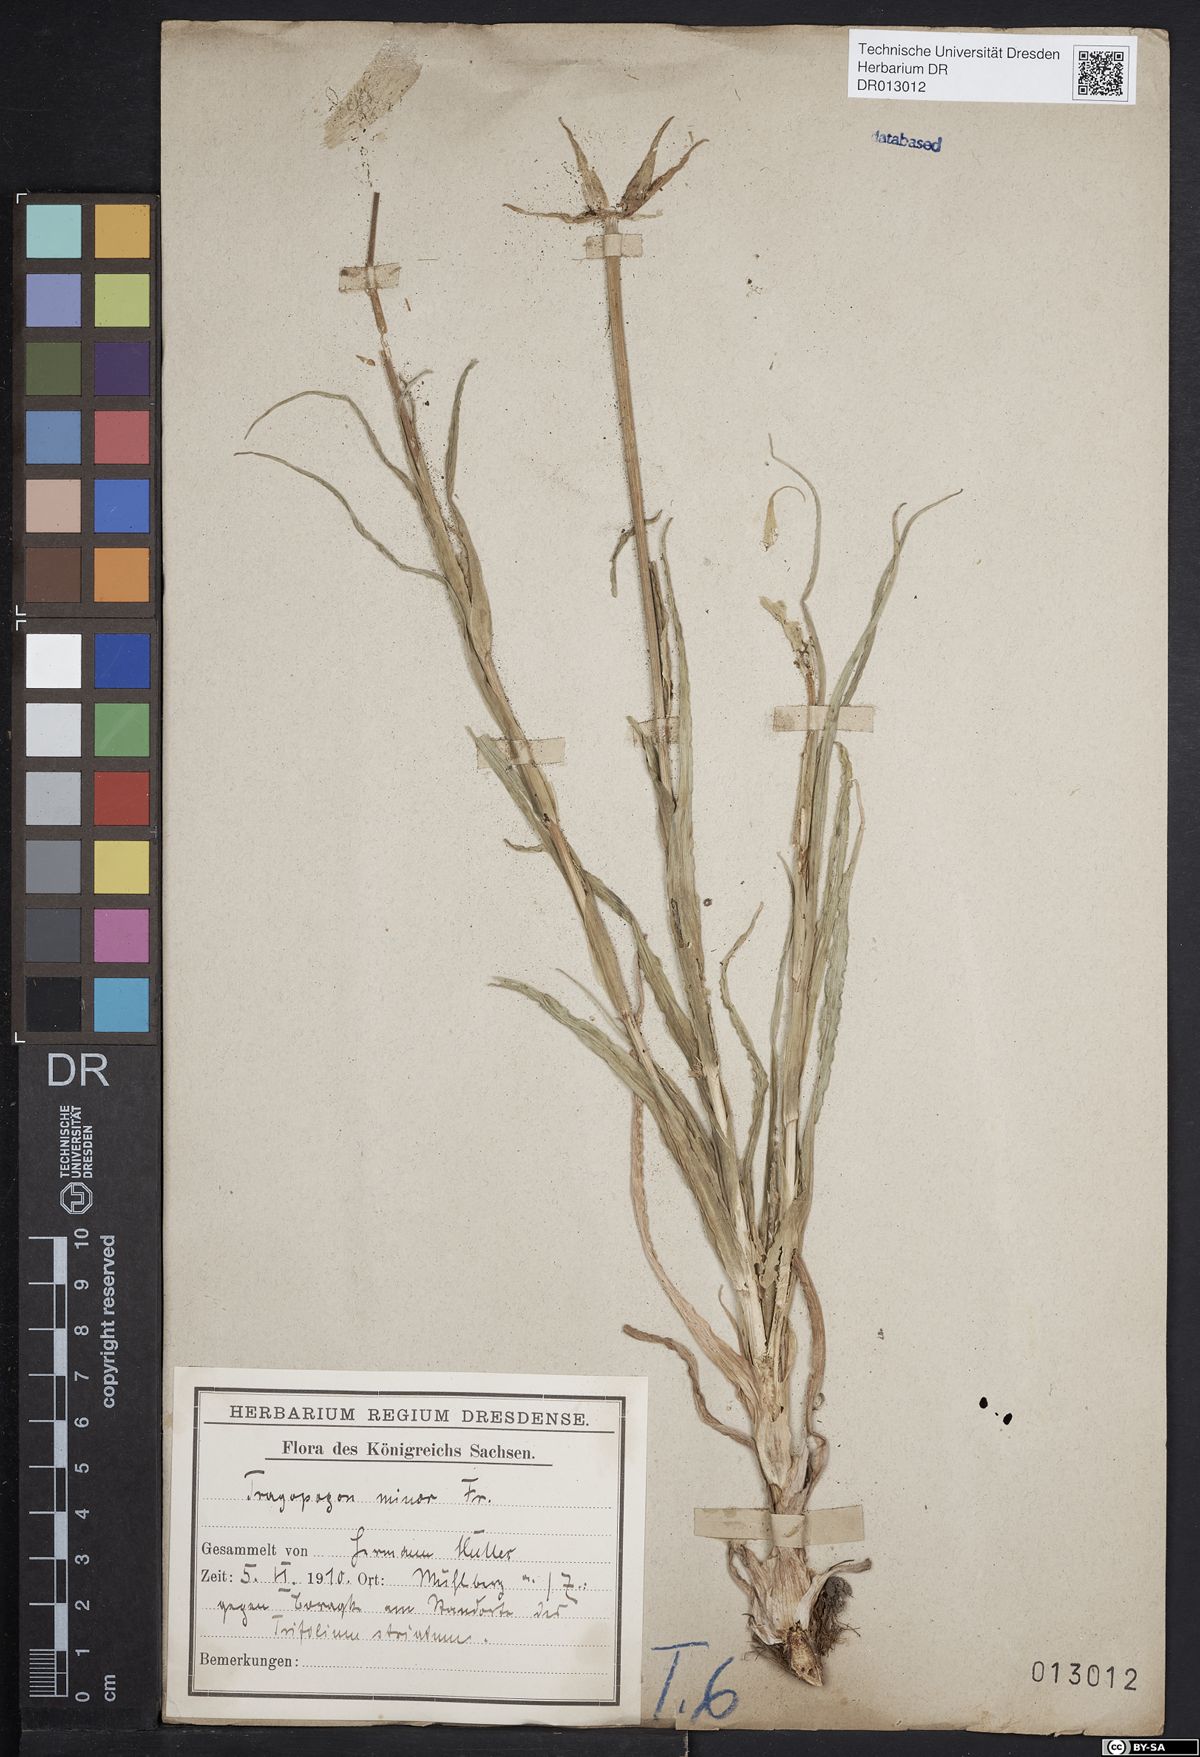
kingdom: Plantae
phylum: Tracheophyta
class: Magnoliopsida
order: Asterales
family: Asteraceae
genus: Tragopogon
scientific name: Tragopogon pratensis
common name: Goat's-beard
